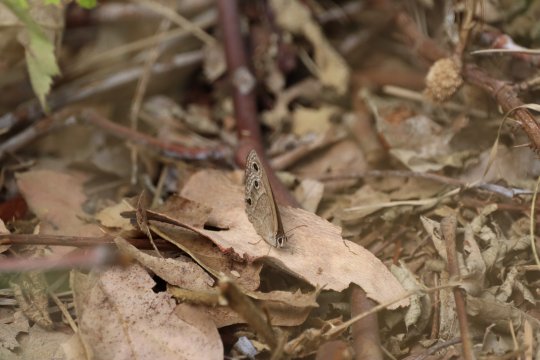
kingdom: Animalia
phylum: Arthropoda
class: Insecta
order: Lepidoptera
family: Nymphalidae
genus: Cercyonis
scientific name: Cercyonis pegala
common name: Common Wood-Nymph
